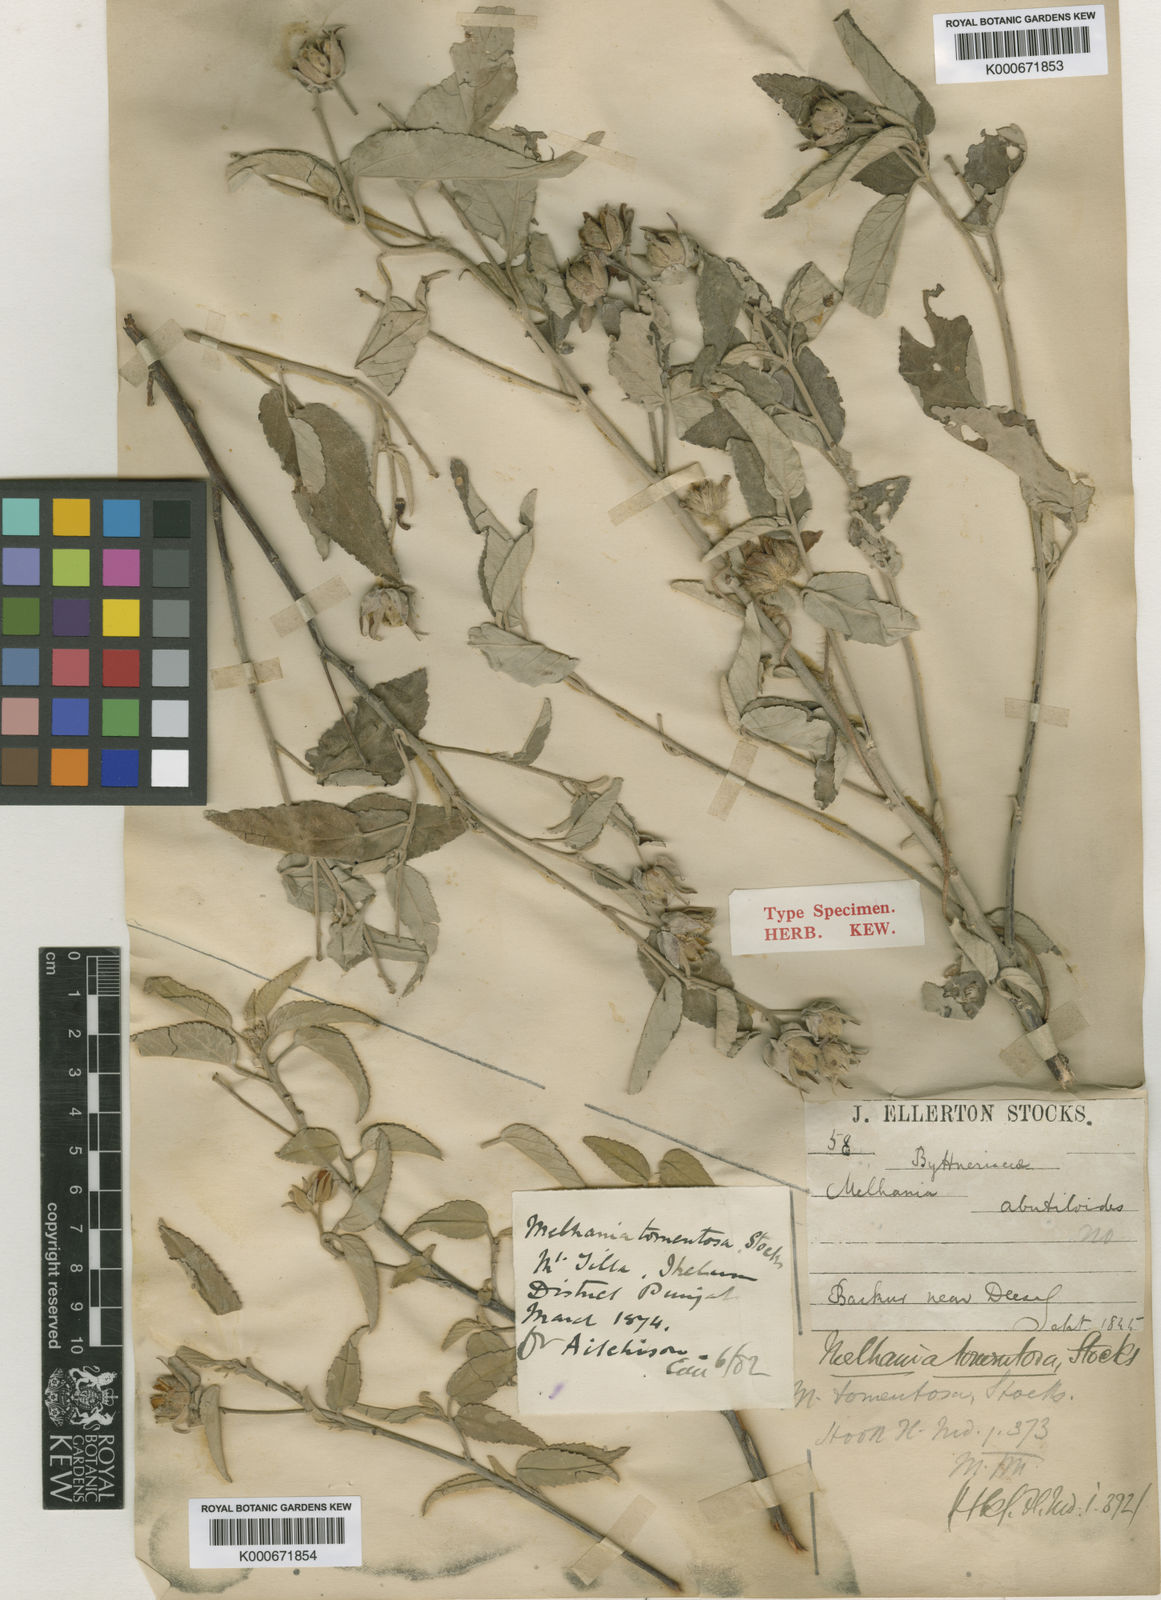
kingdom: Plantae
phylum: Tracheophyta
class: Magnoliopsida
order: Malvales
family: Malvaceae
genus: Melhania
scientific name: Melhania futteyporensis
